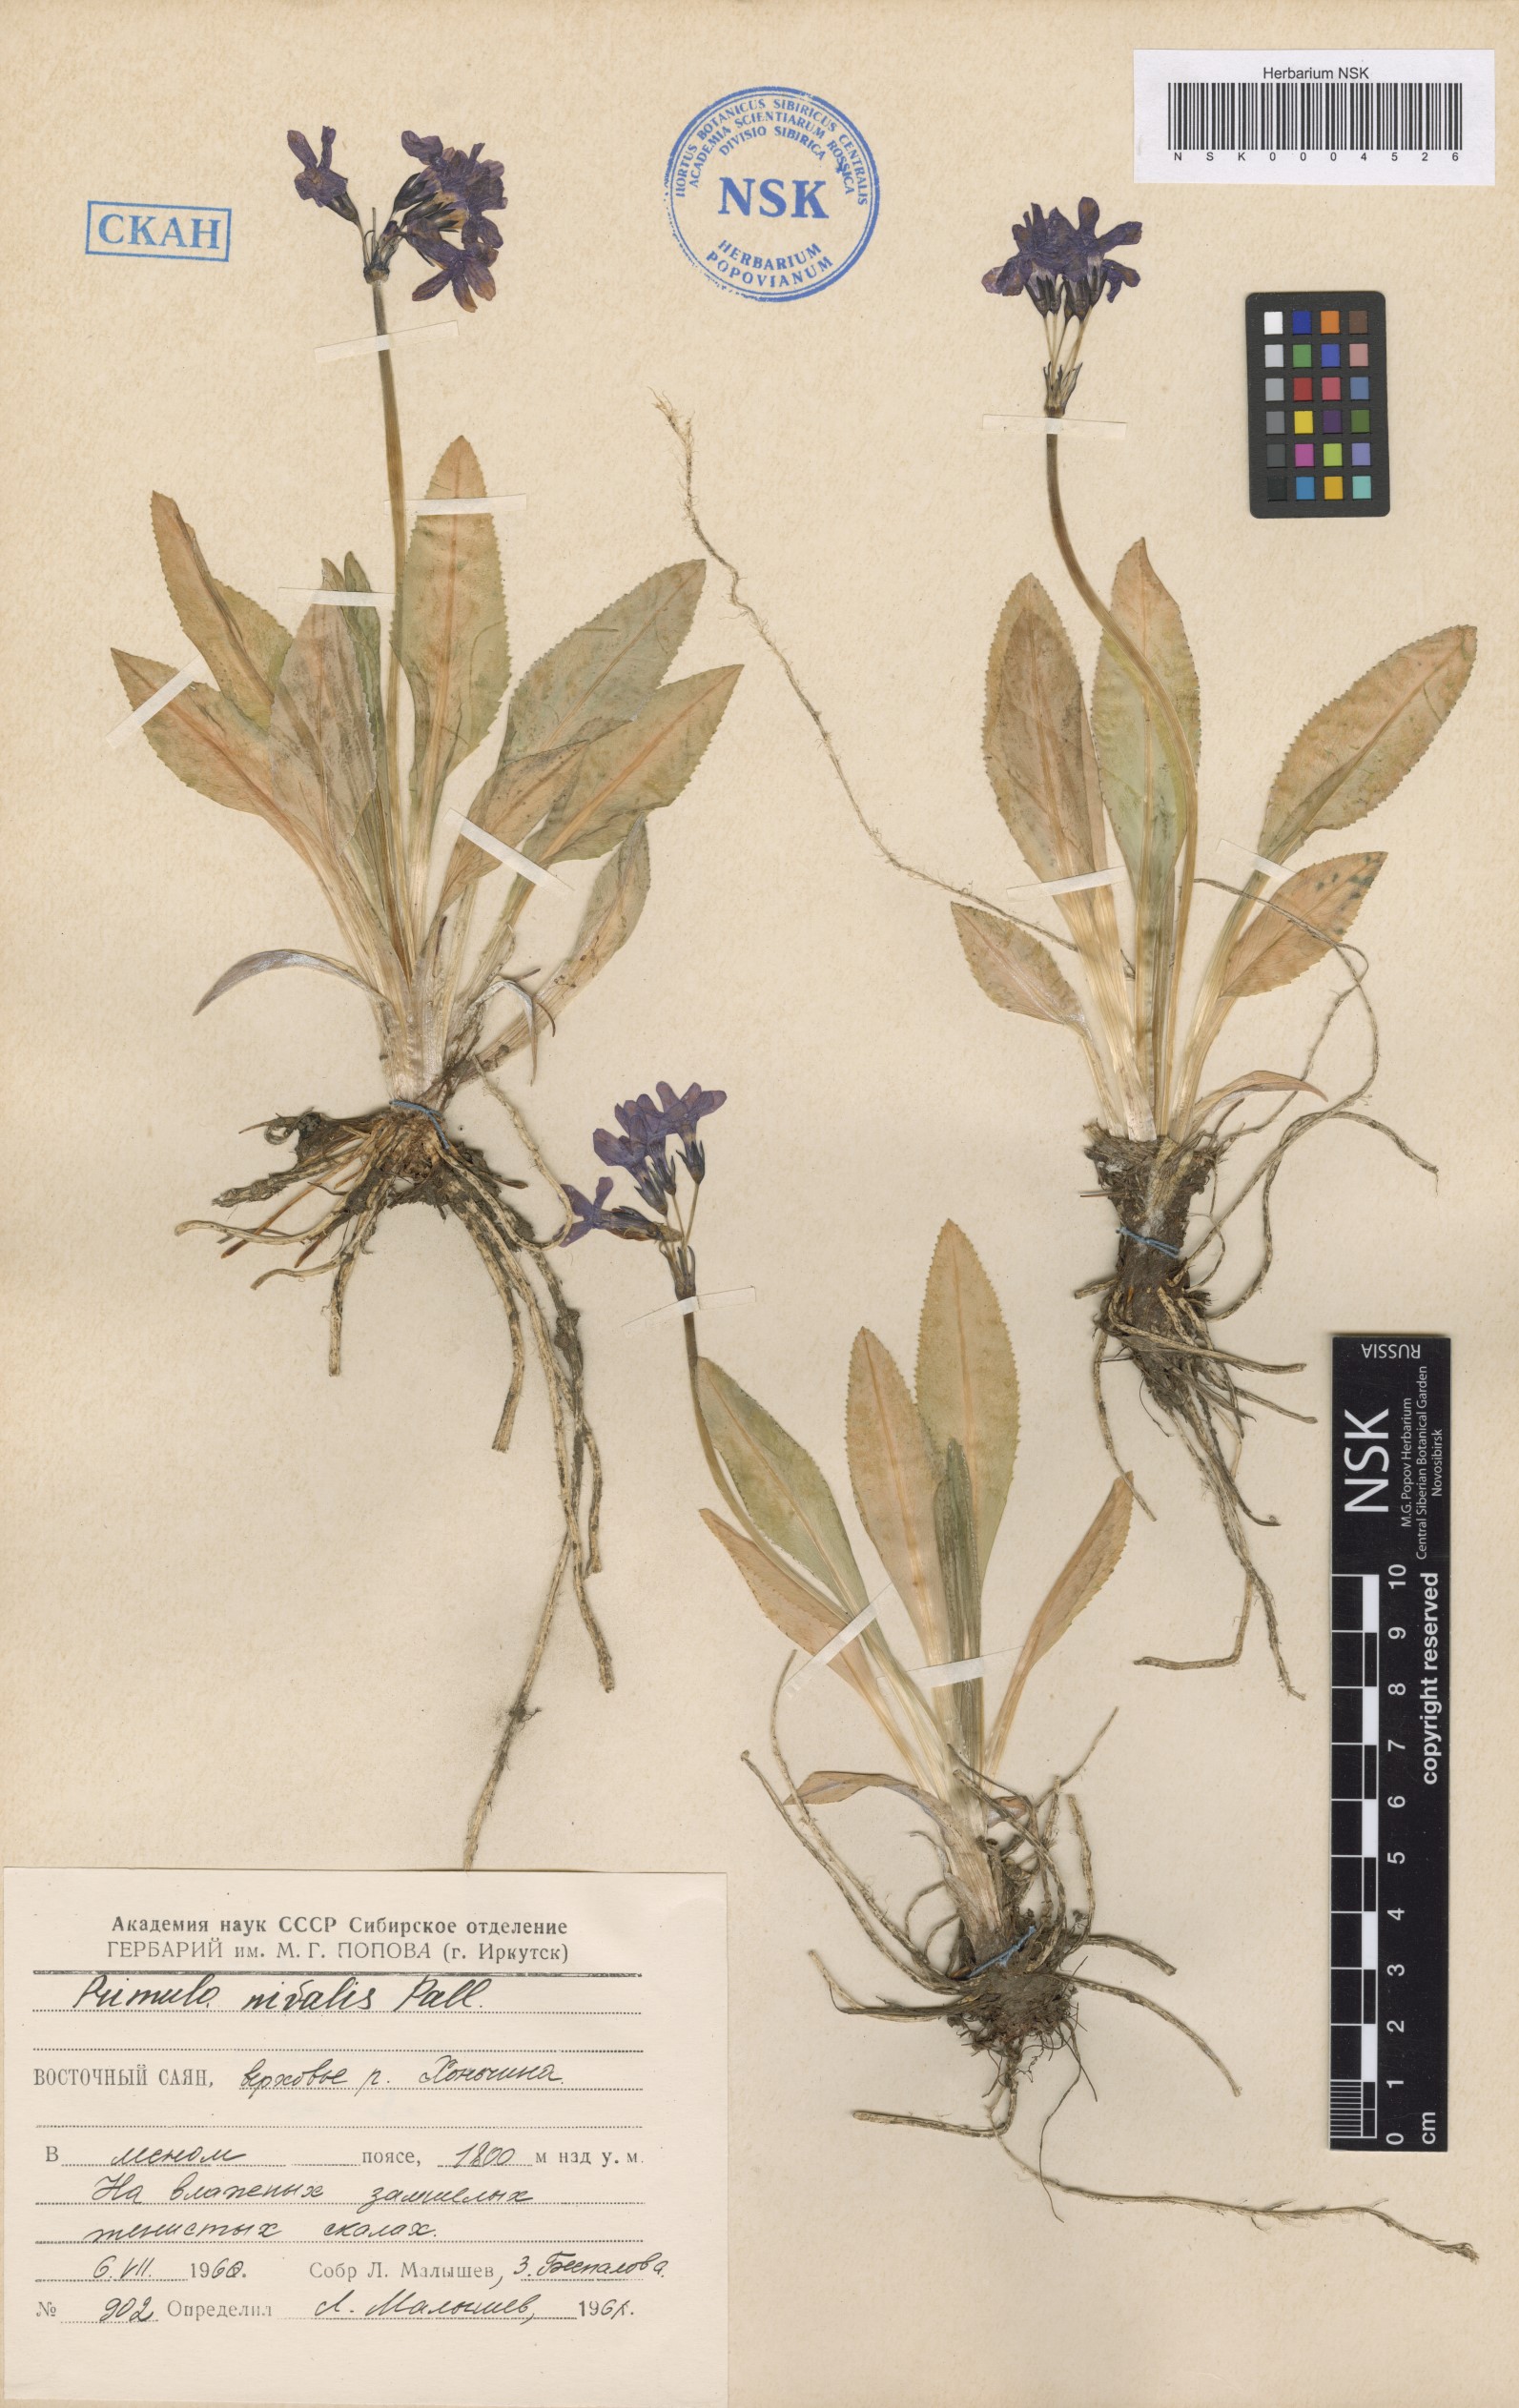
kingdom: Plantae
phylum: Tracheophyta
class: Magnoliopsida
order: Ericales
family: Primulaceae
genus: Primula
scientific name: Primula nivalis
